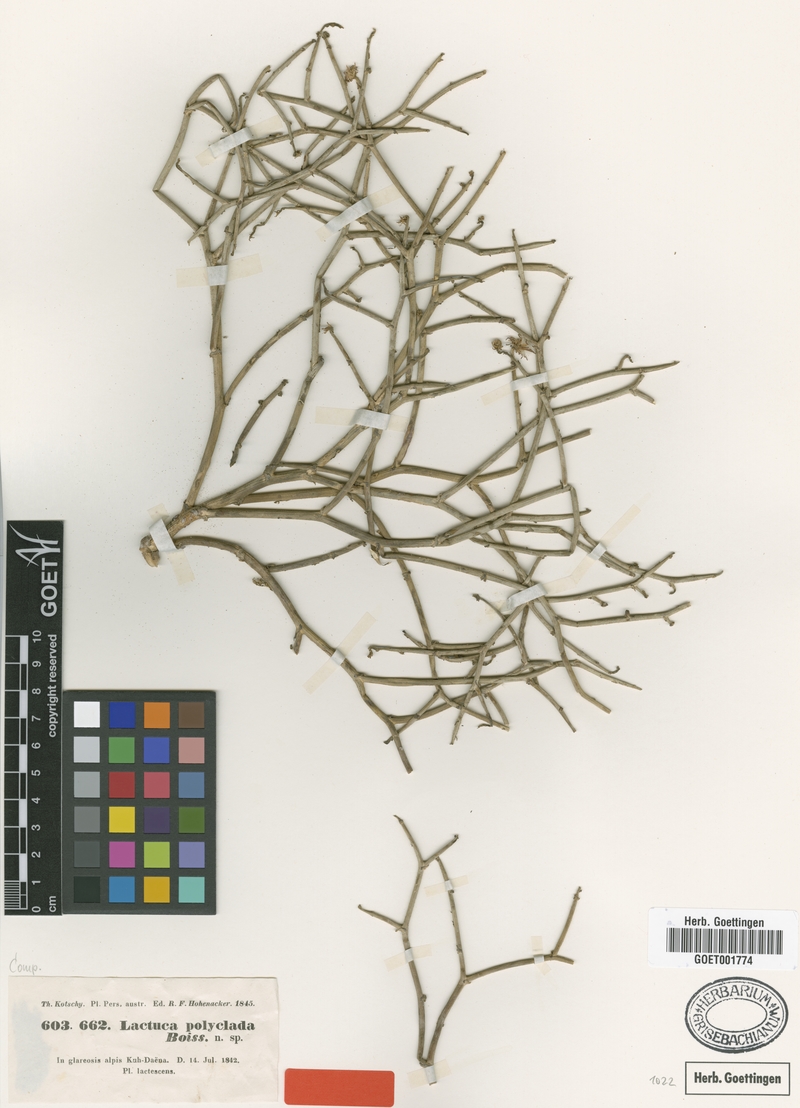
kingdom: Plantae
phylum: Tracheophyta
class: Magnoliopsida
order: Asterales
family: Asteraceae
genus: Lactuca
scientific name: Lactuca polyclada
